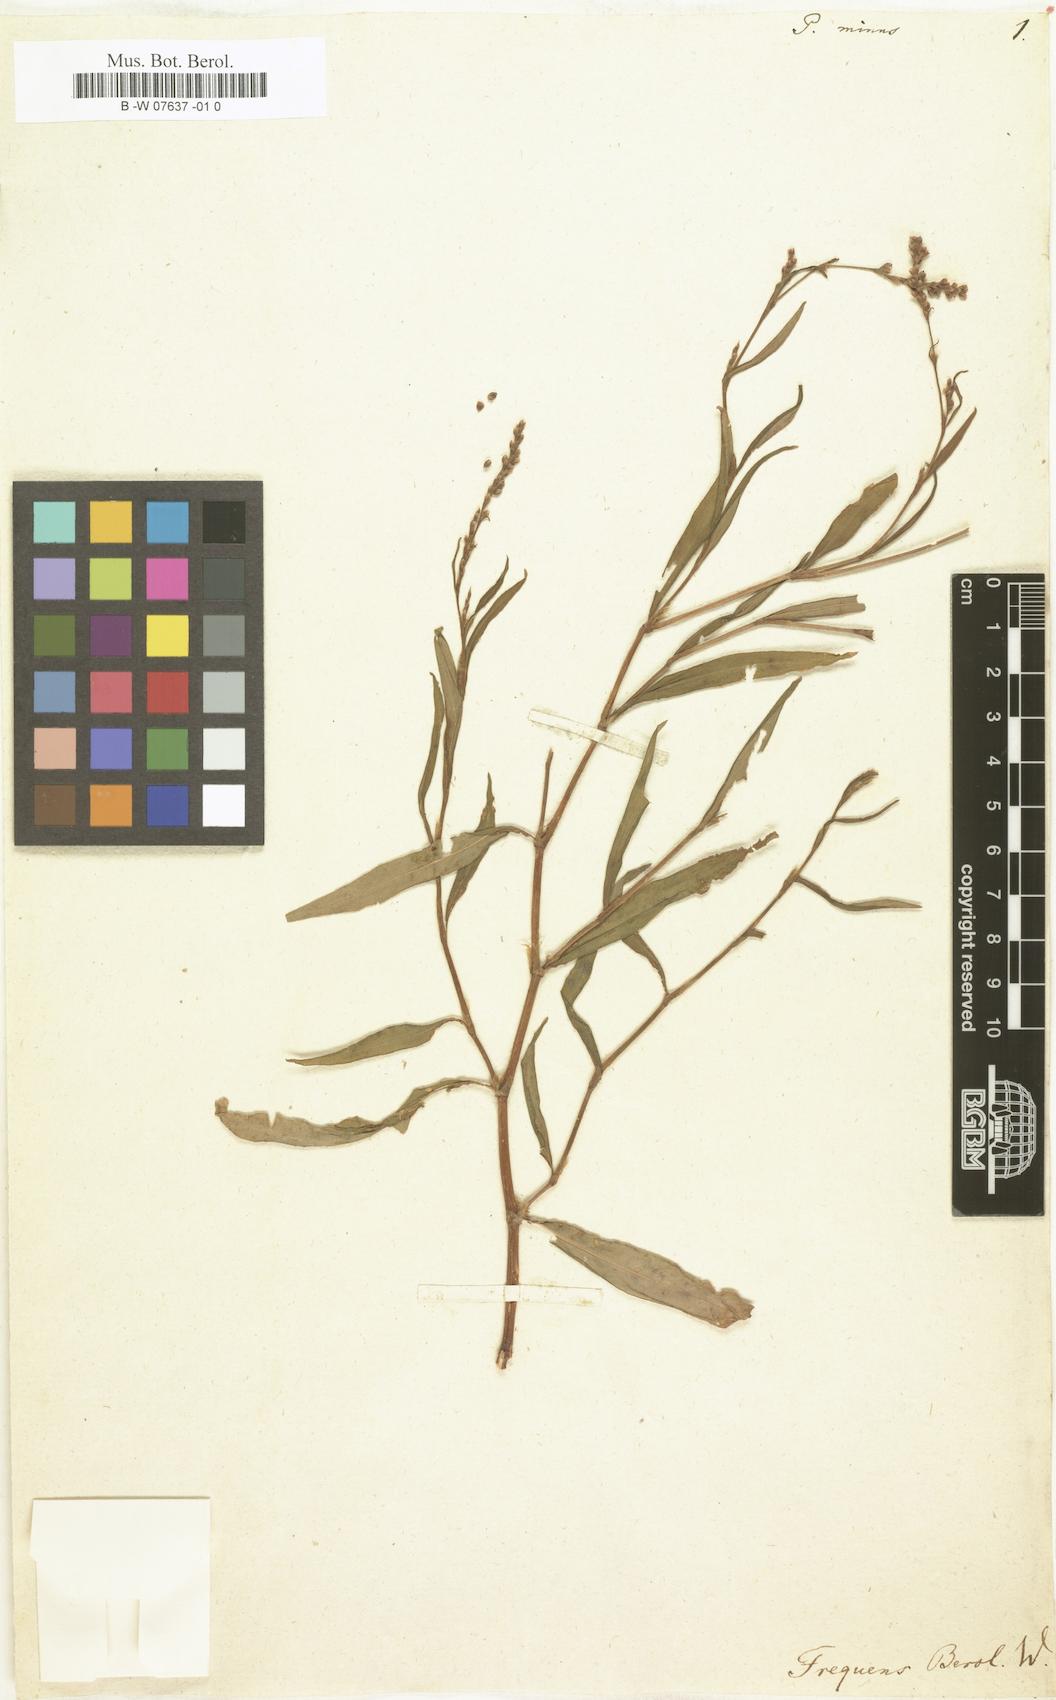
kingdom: Plantae
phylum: Tracheophyta
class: Magnoliopsida
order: Caryophyllales
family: Polygonaceae
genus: Persicaria
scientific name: Persicaria
